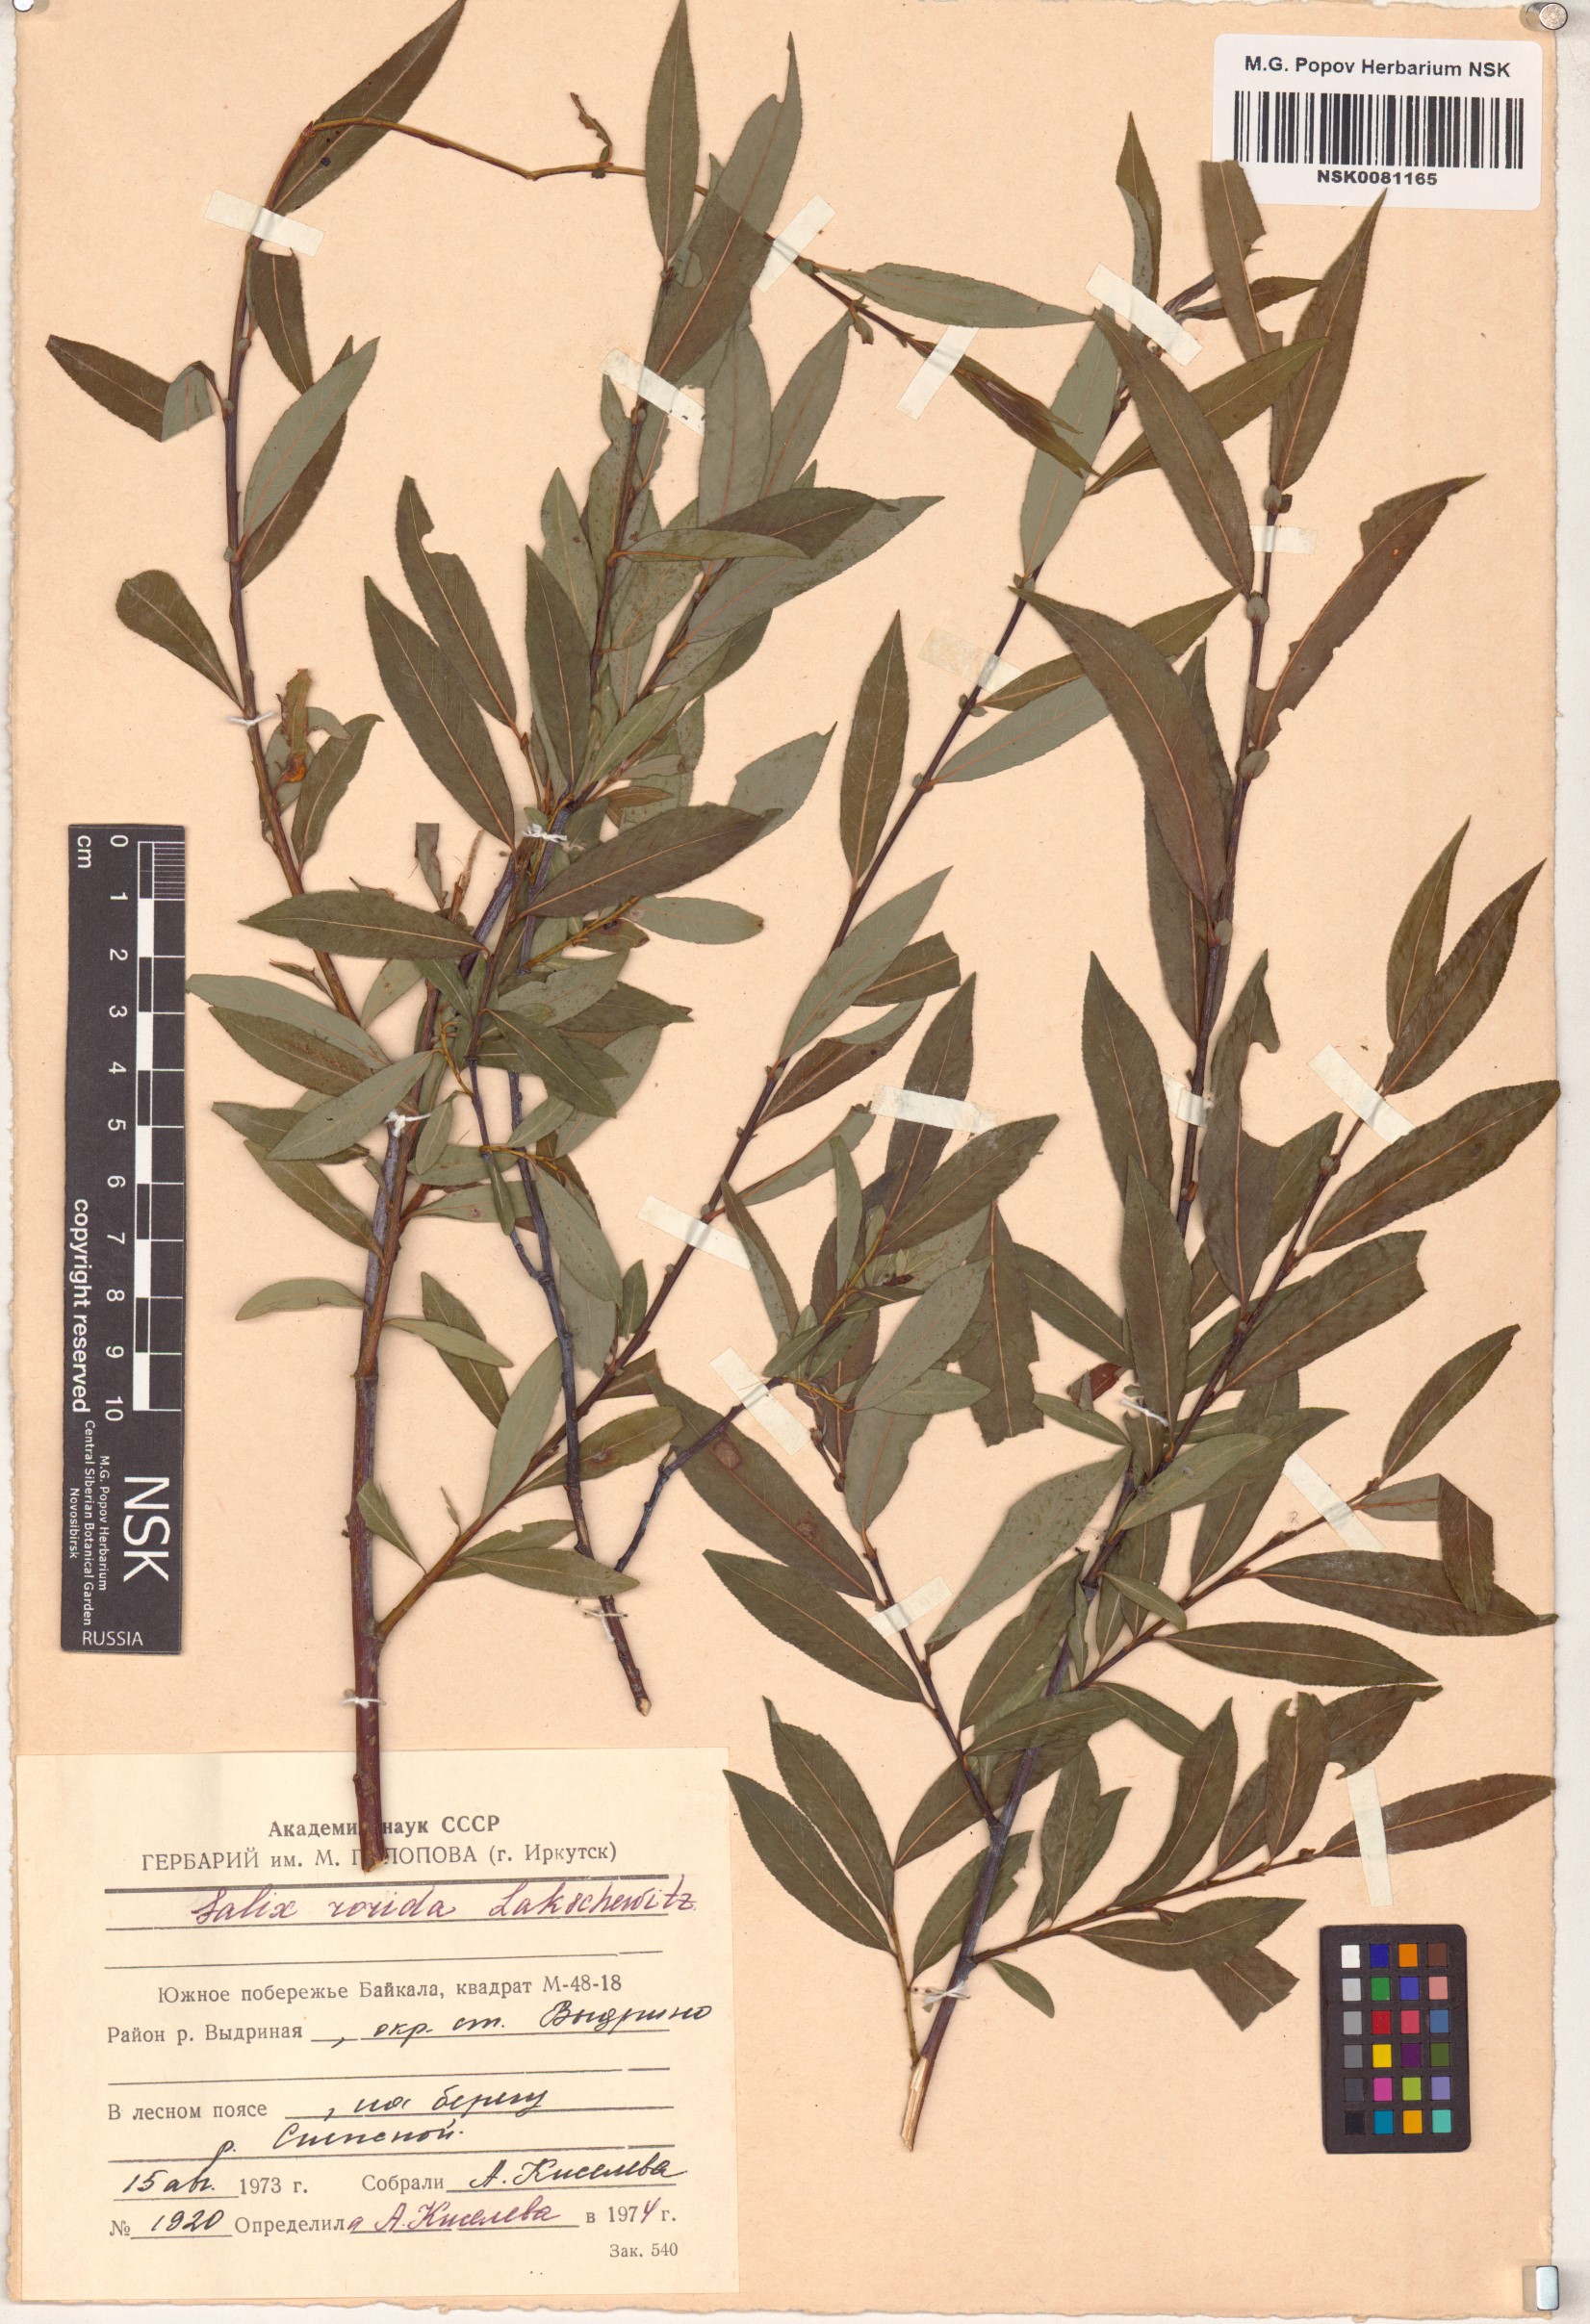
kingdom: Plantae
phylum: Tracheophyta
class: Magnoliopsida
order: Malpighiales
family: Salicaceae
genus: Salix
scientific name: Salix rorida
